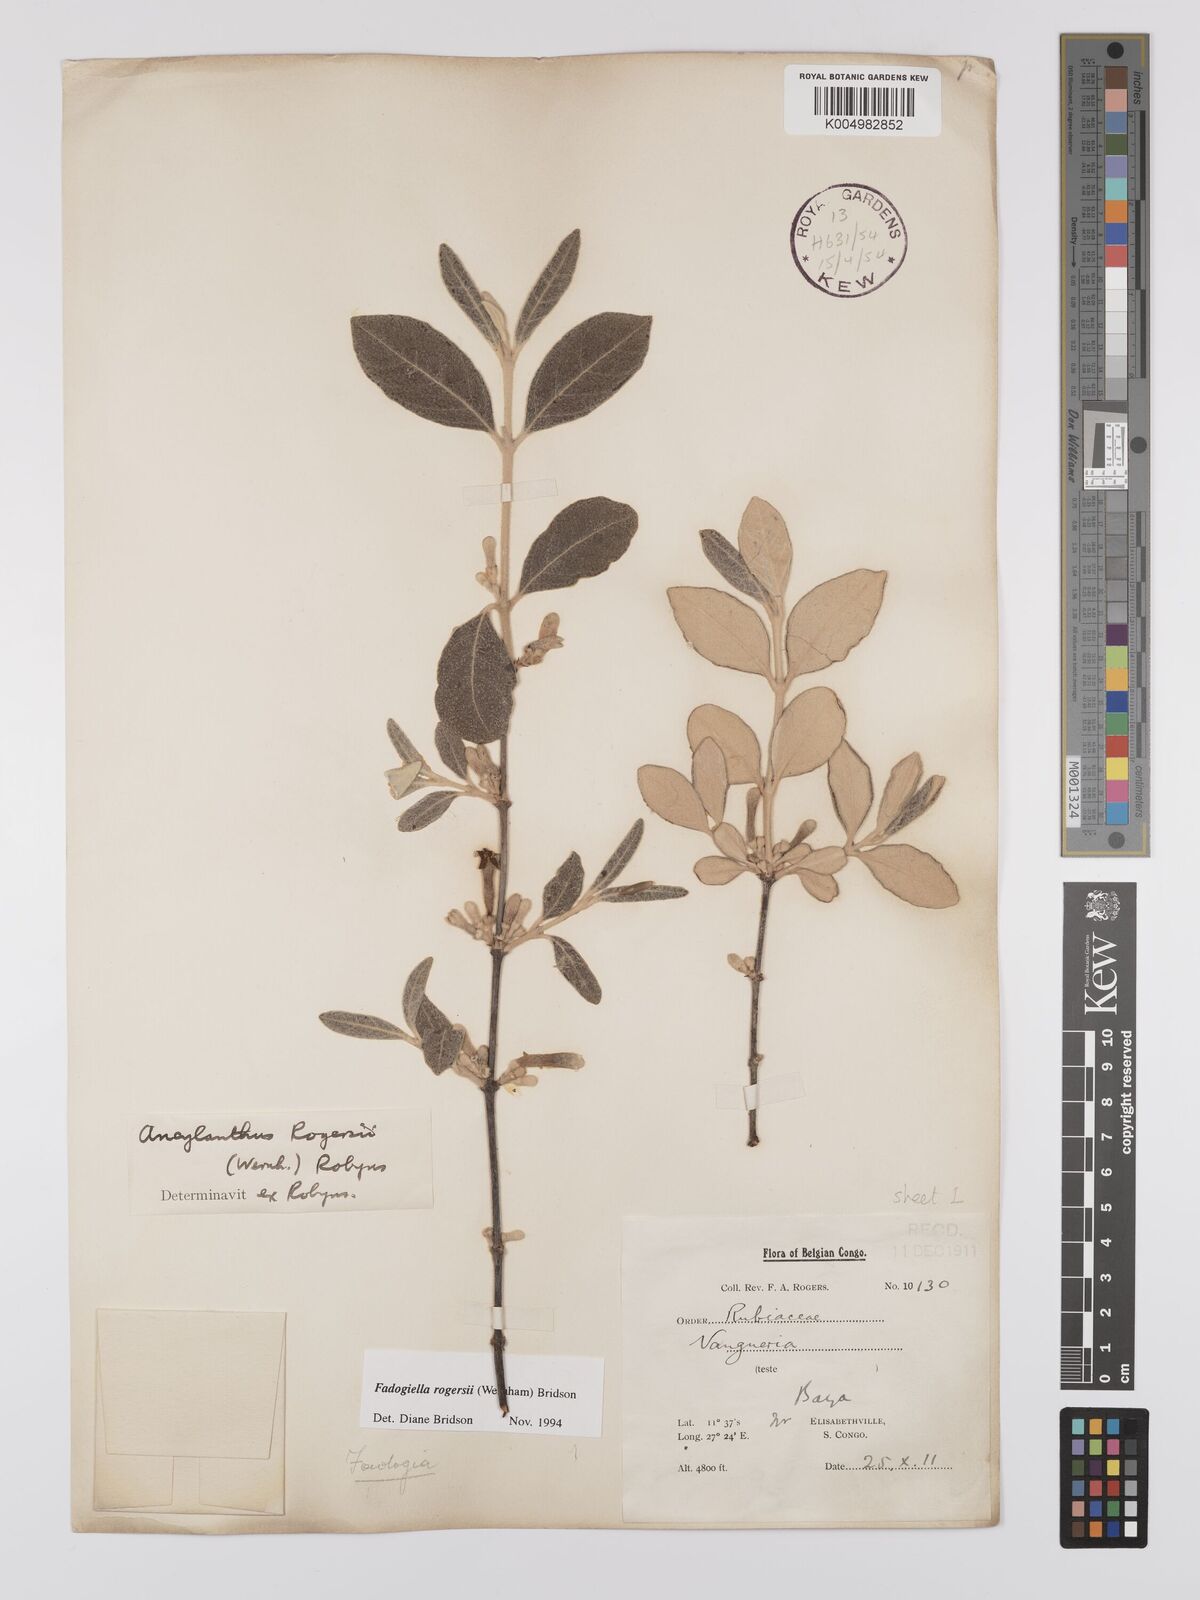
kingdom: Plantae
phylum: Tracheophyta
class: Magnoliopsida
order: Gentianales
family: Rubiaceae
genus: Fadogiella
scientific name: Fadogiella rogersii
